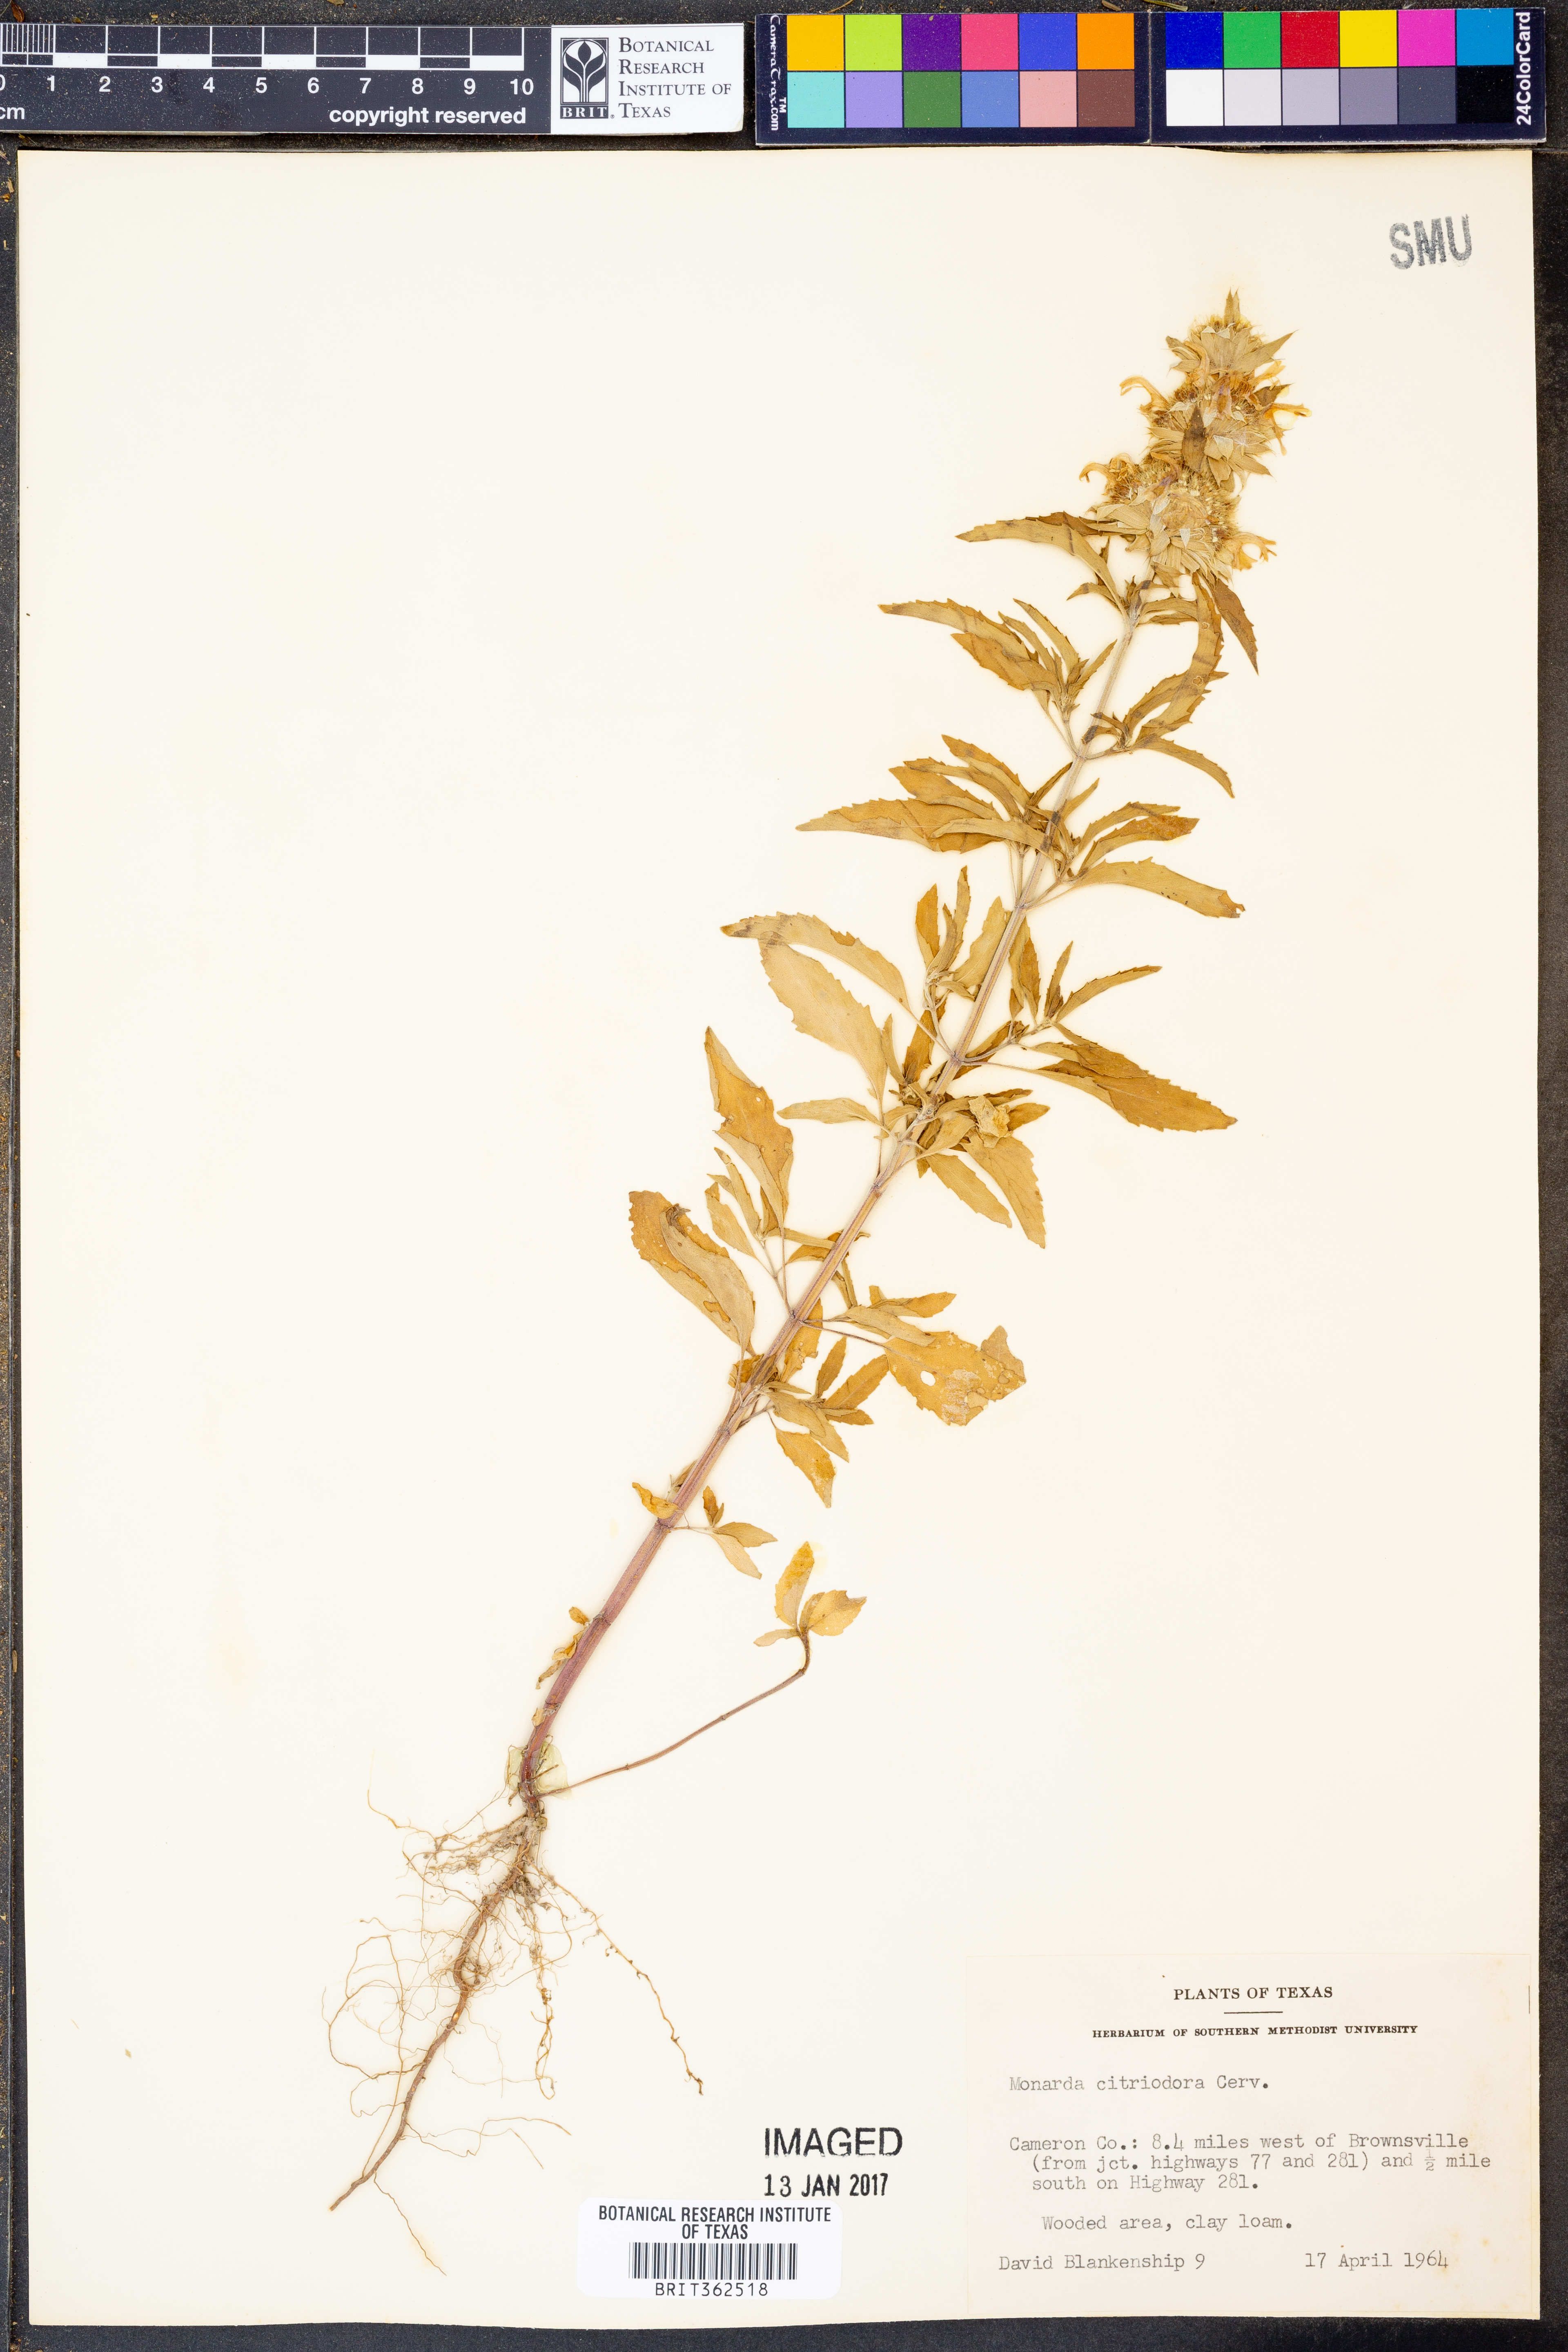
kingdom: Plantae
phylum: Tracheophyta
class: Magnoliopsida
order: Lamiales
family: Lamiaceae
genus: Monarda
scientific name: Monarda citriodora
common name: Lemon beebalm
